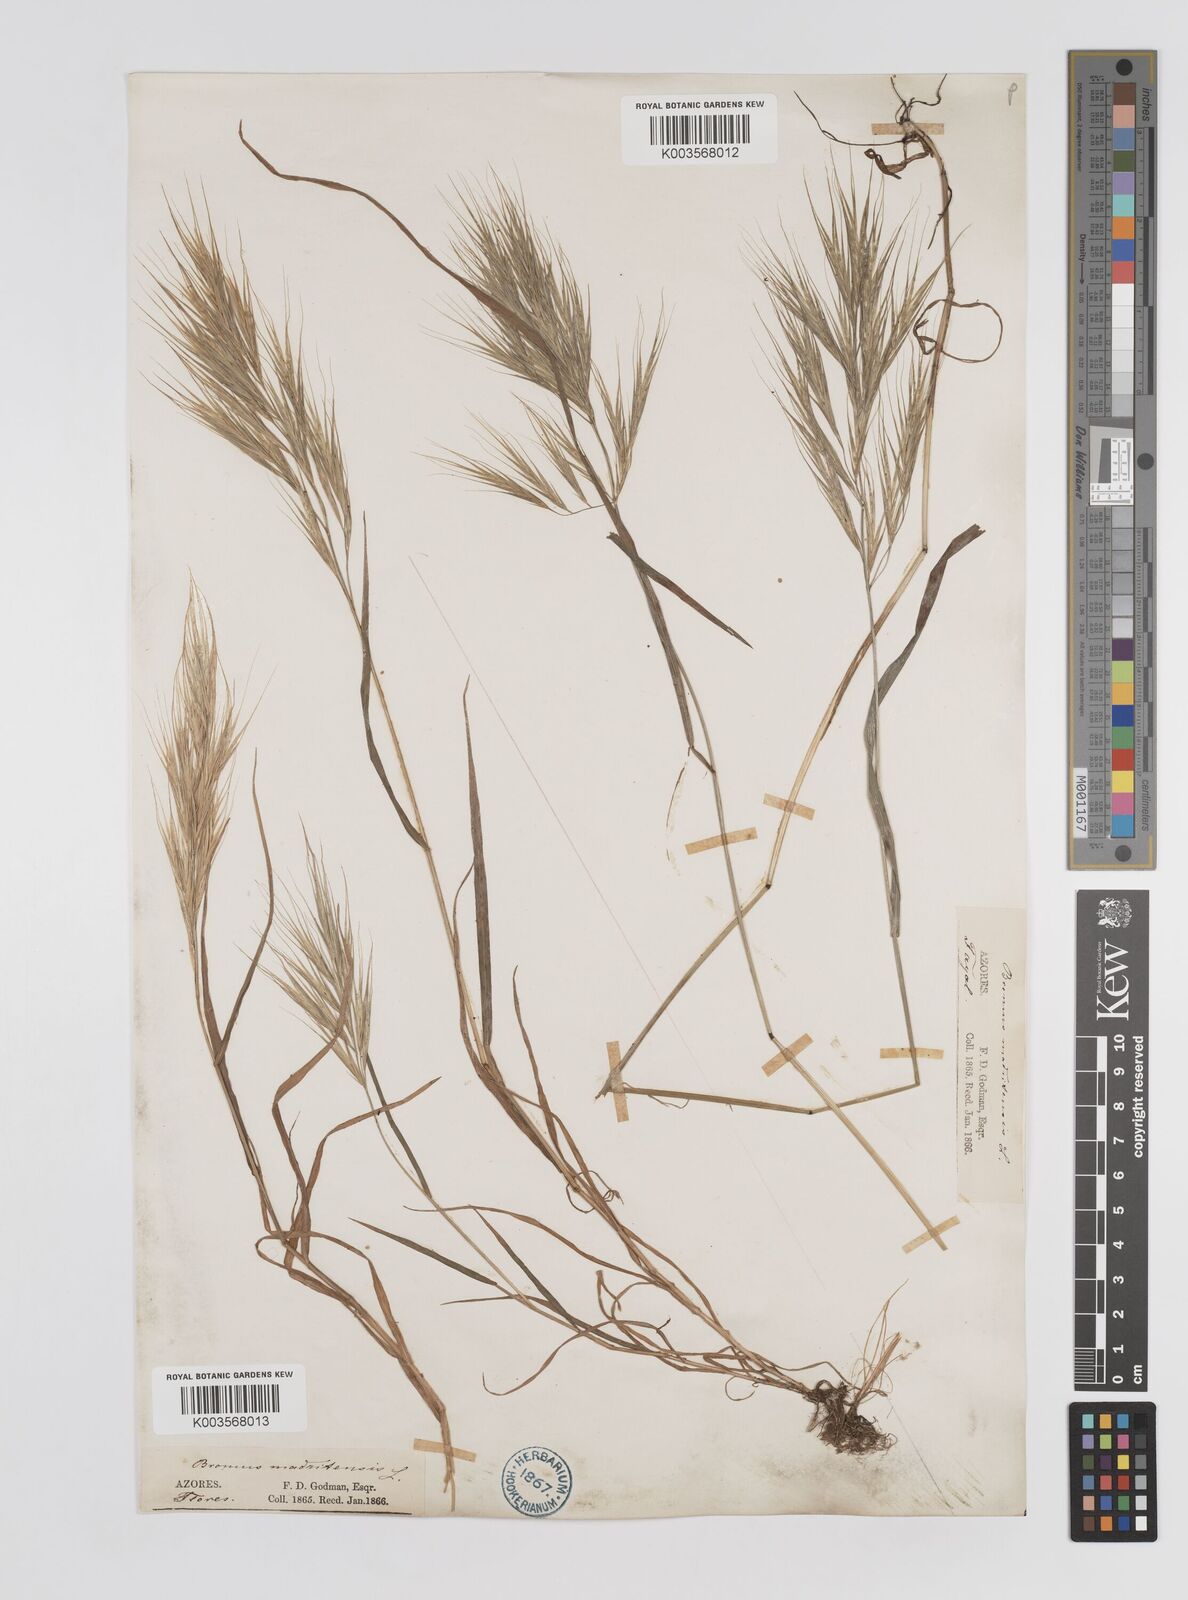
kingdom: Plantae
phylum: Tracheophyta
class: Liliopsida
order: Poales
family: Poaceae
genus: Bromus
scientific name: Bromus
